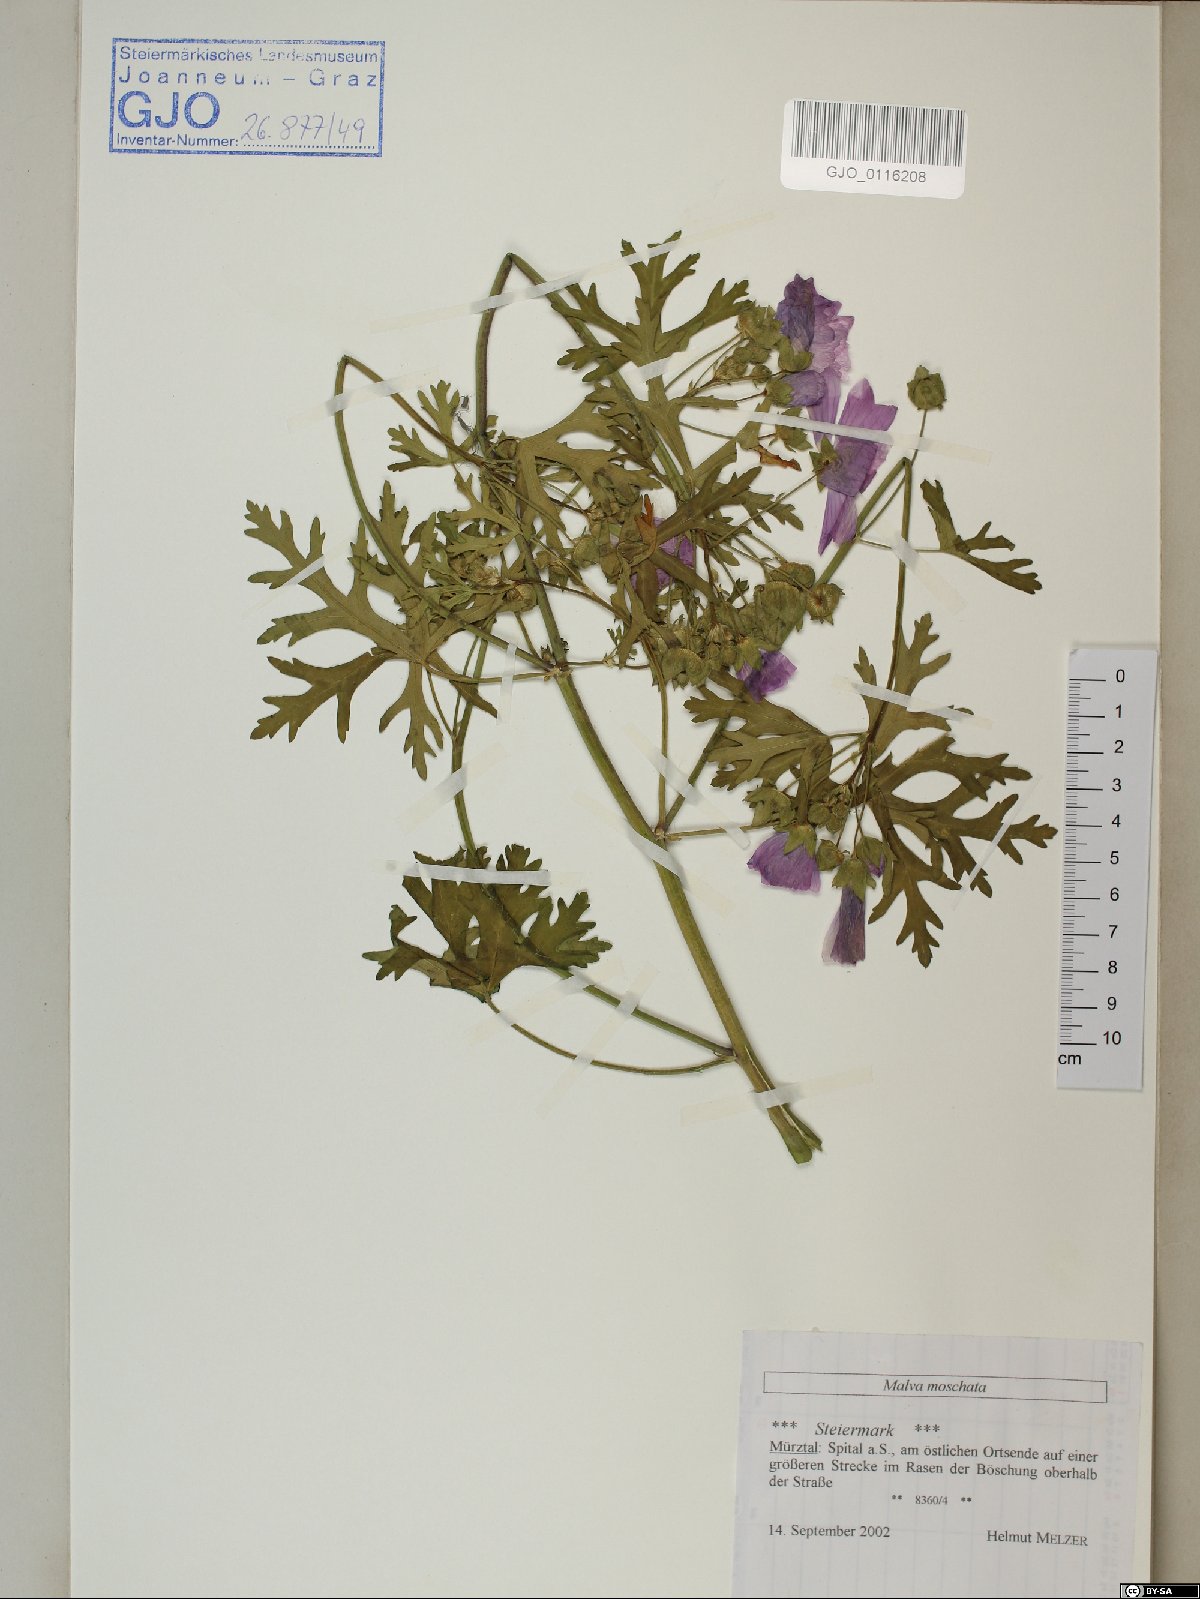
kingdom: Plantae
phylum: Tracheophyta
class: Magnoliopsida
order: Malvales
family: Malvaceae
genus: Malva
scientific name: Malva moschata
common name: Musk mallow
